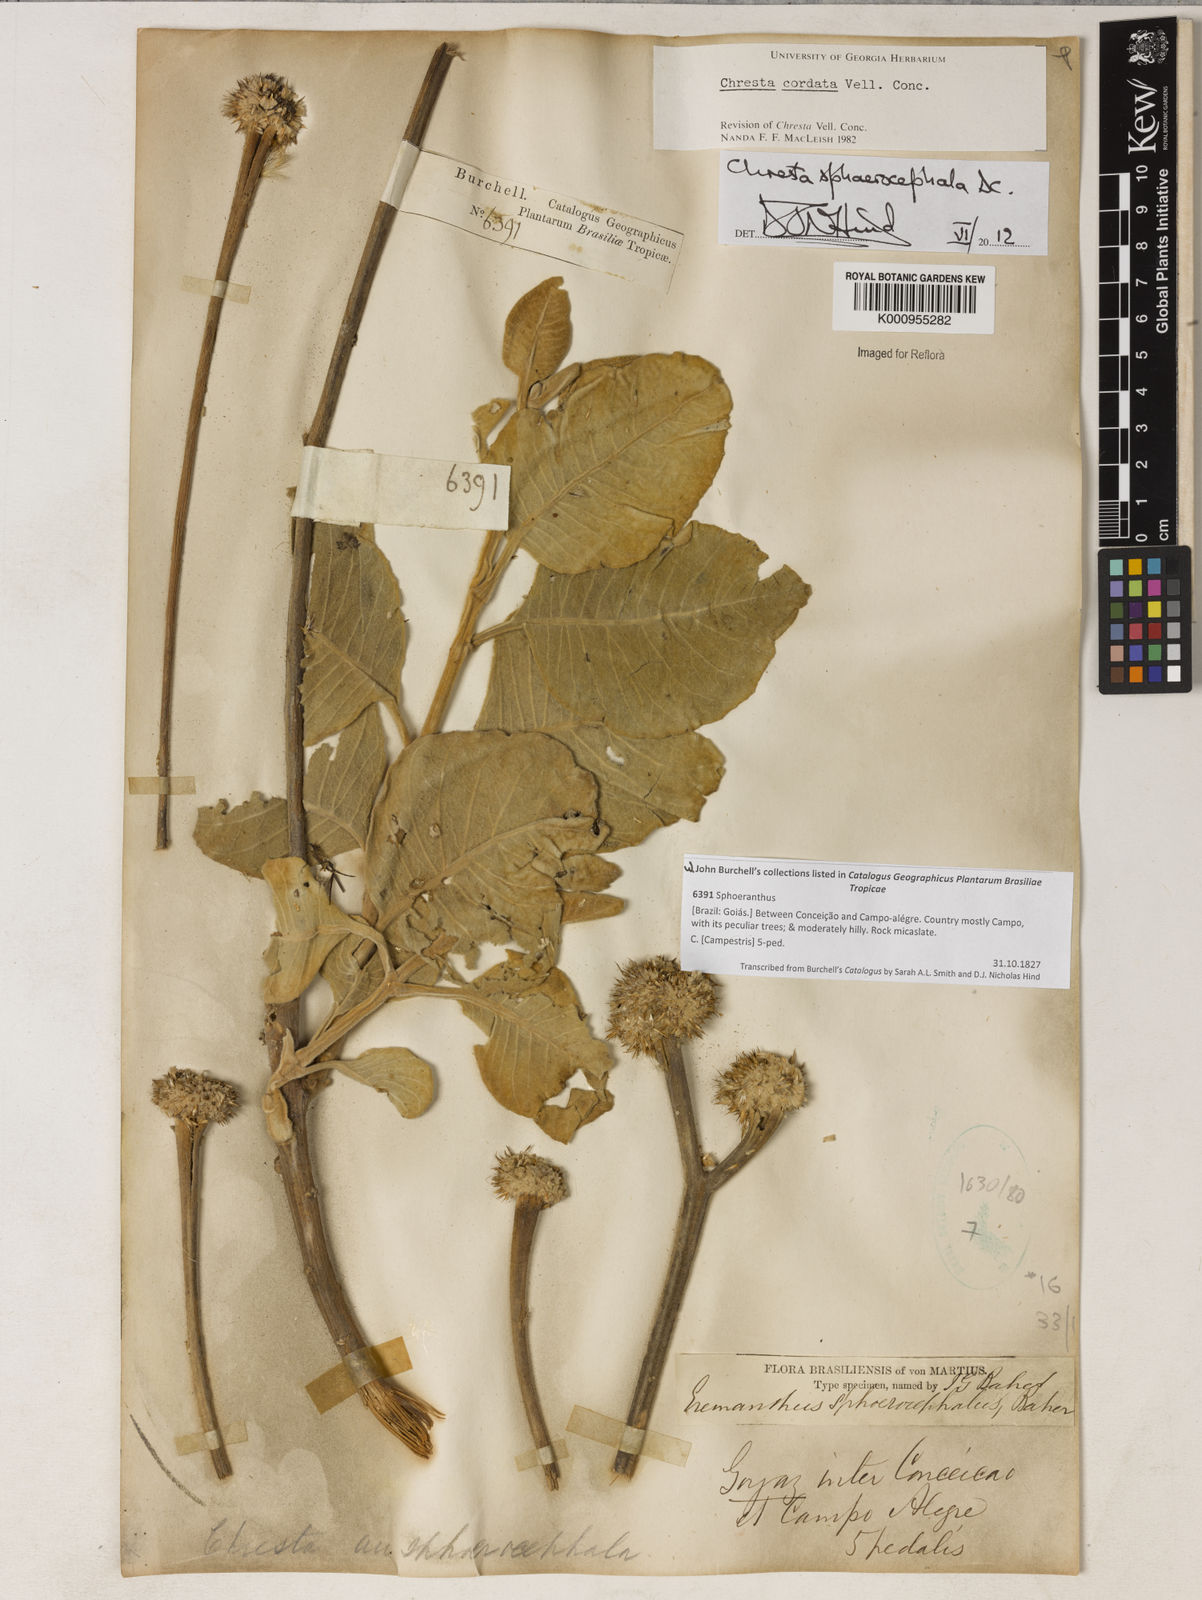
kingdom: Plantae
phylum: Tracheophyta
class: Magnoliopsida
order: Asterales
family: Asteraceae
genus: Chresta
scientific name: Chresta sphaerocephala
